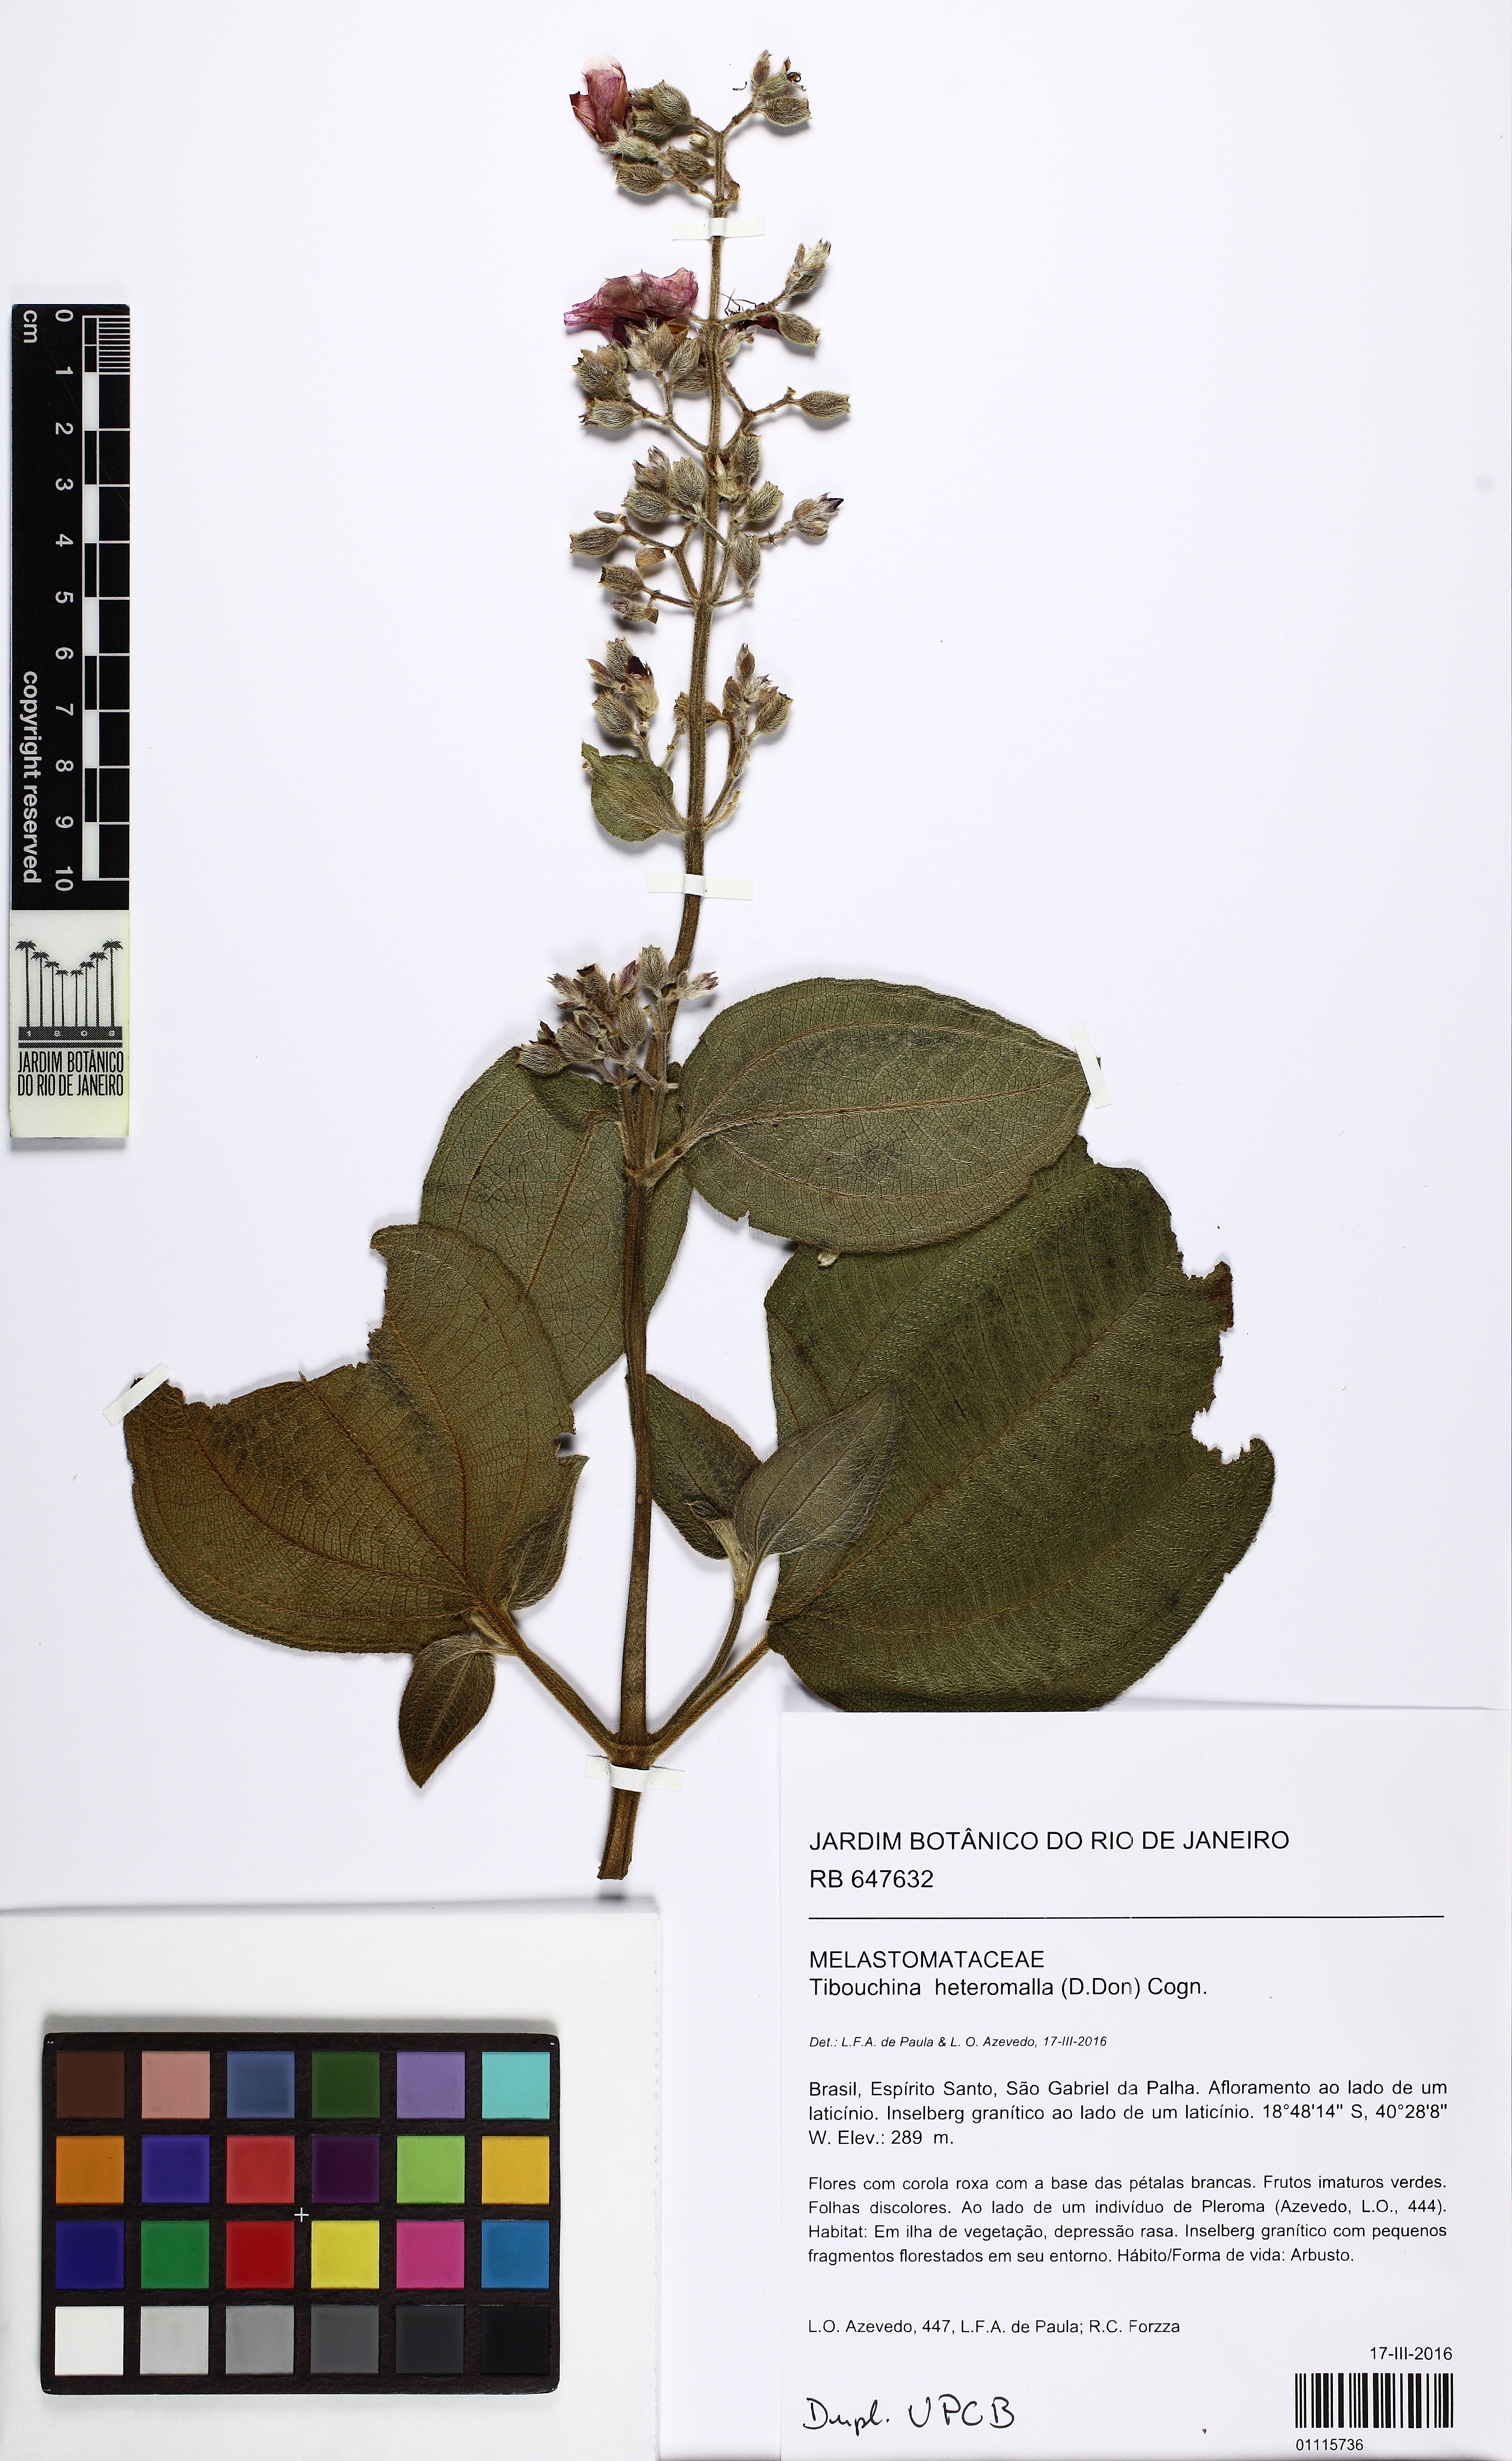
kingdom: Plantae
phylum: Tracheophyta
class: Magnoliopsida
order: Myrtales
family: Melastomataceae
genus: Pleroma
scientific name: Pleroma cucullatum
